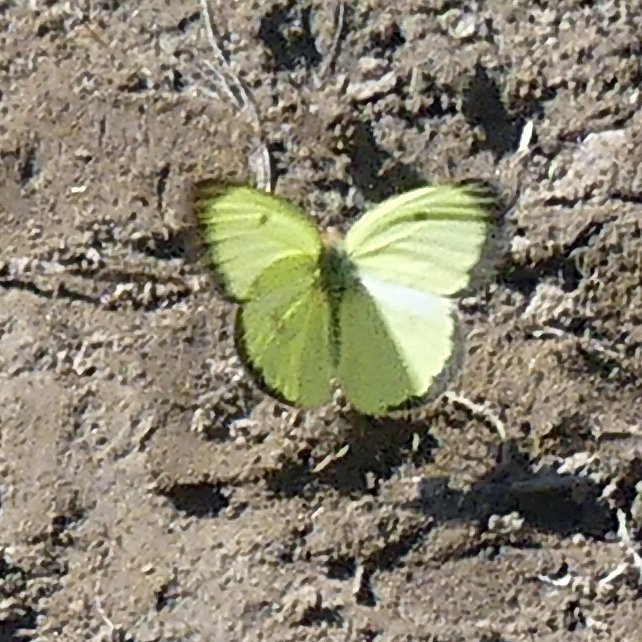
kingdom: Animalia
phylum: Arthropoda
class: Insecta
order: Lepidoptera
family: Pieridae
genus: Colias
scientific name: Colias philodice
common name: Clouded Sulphur
